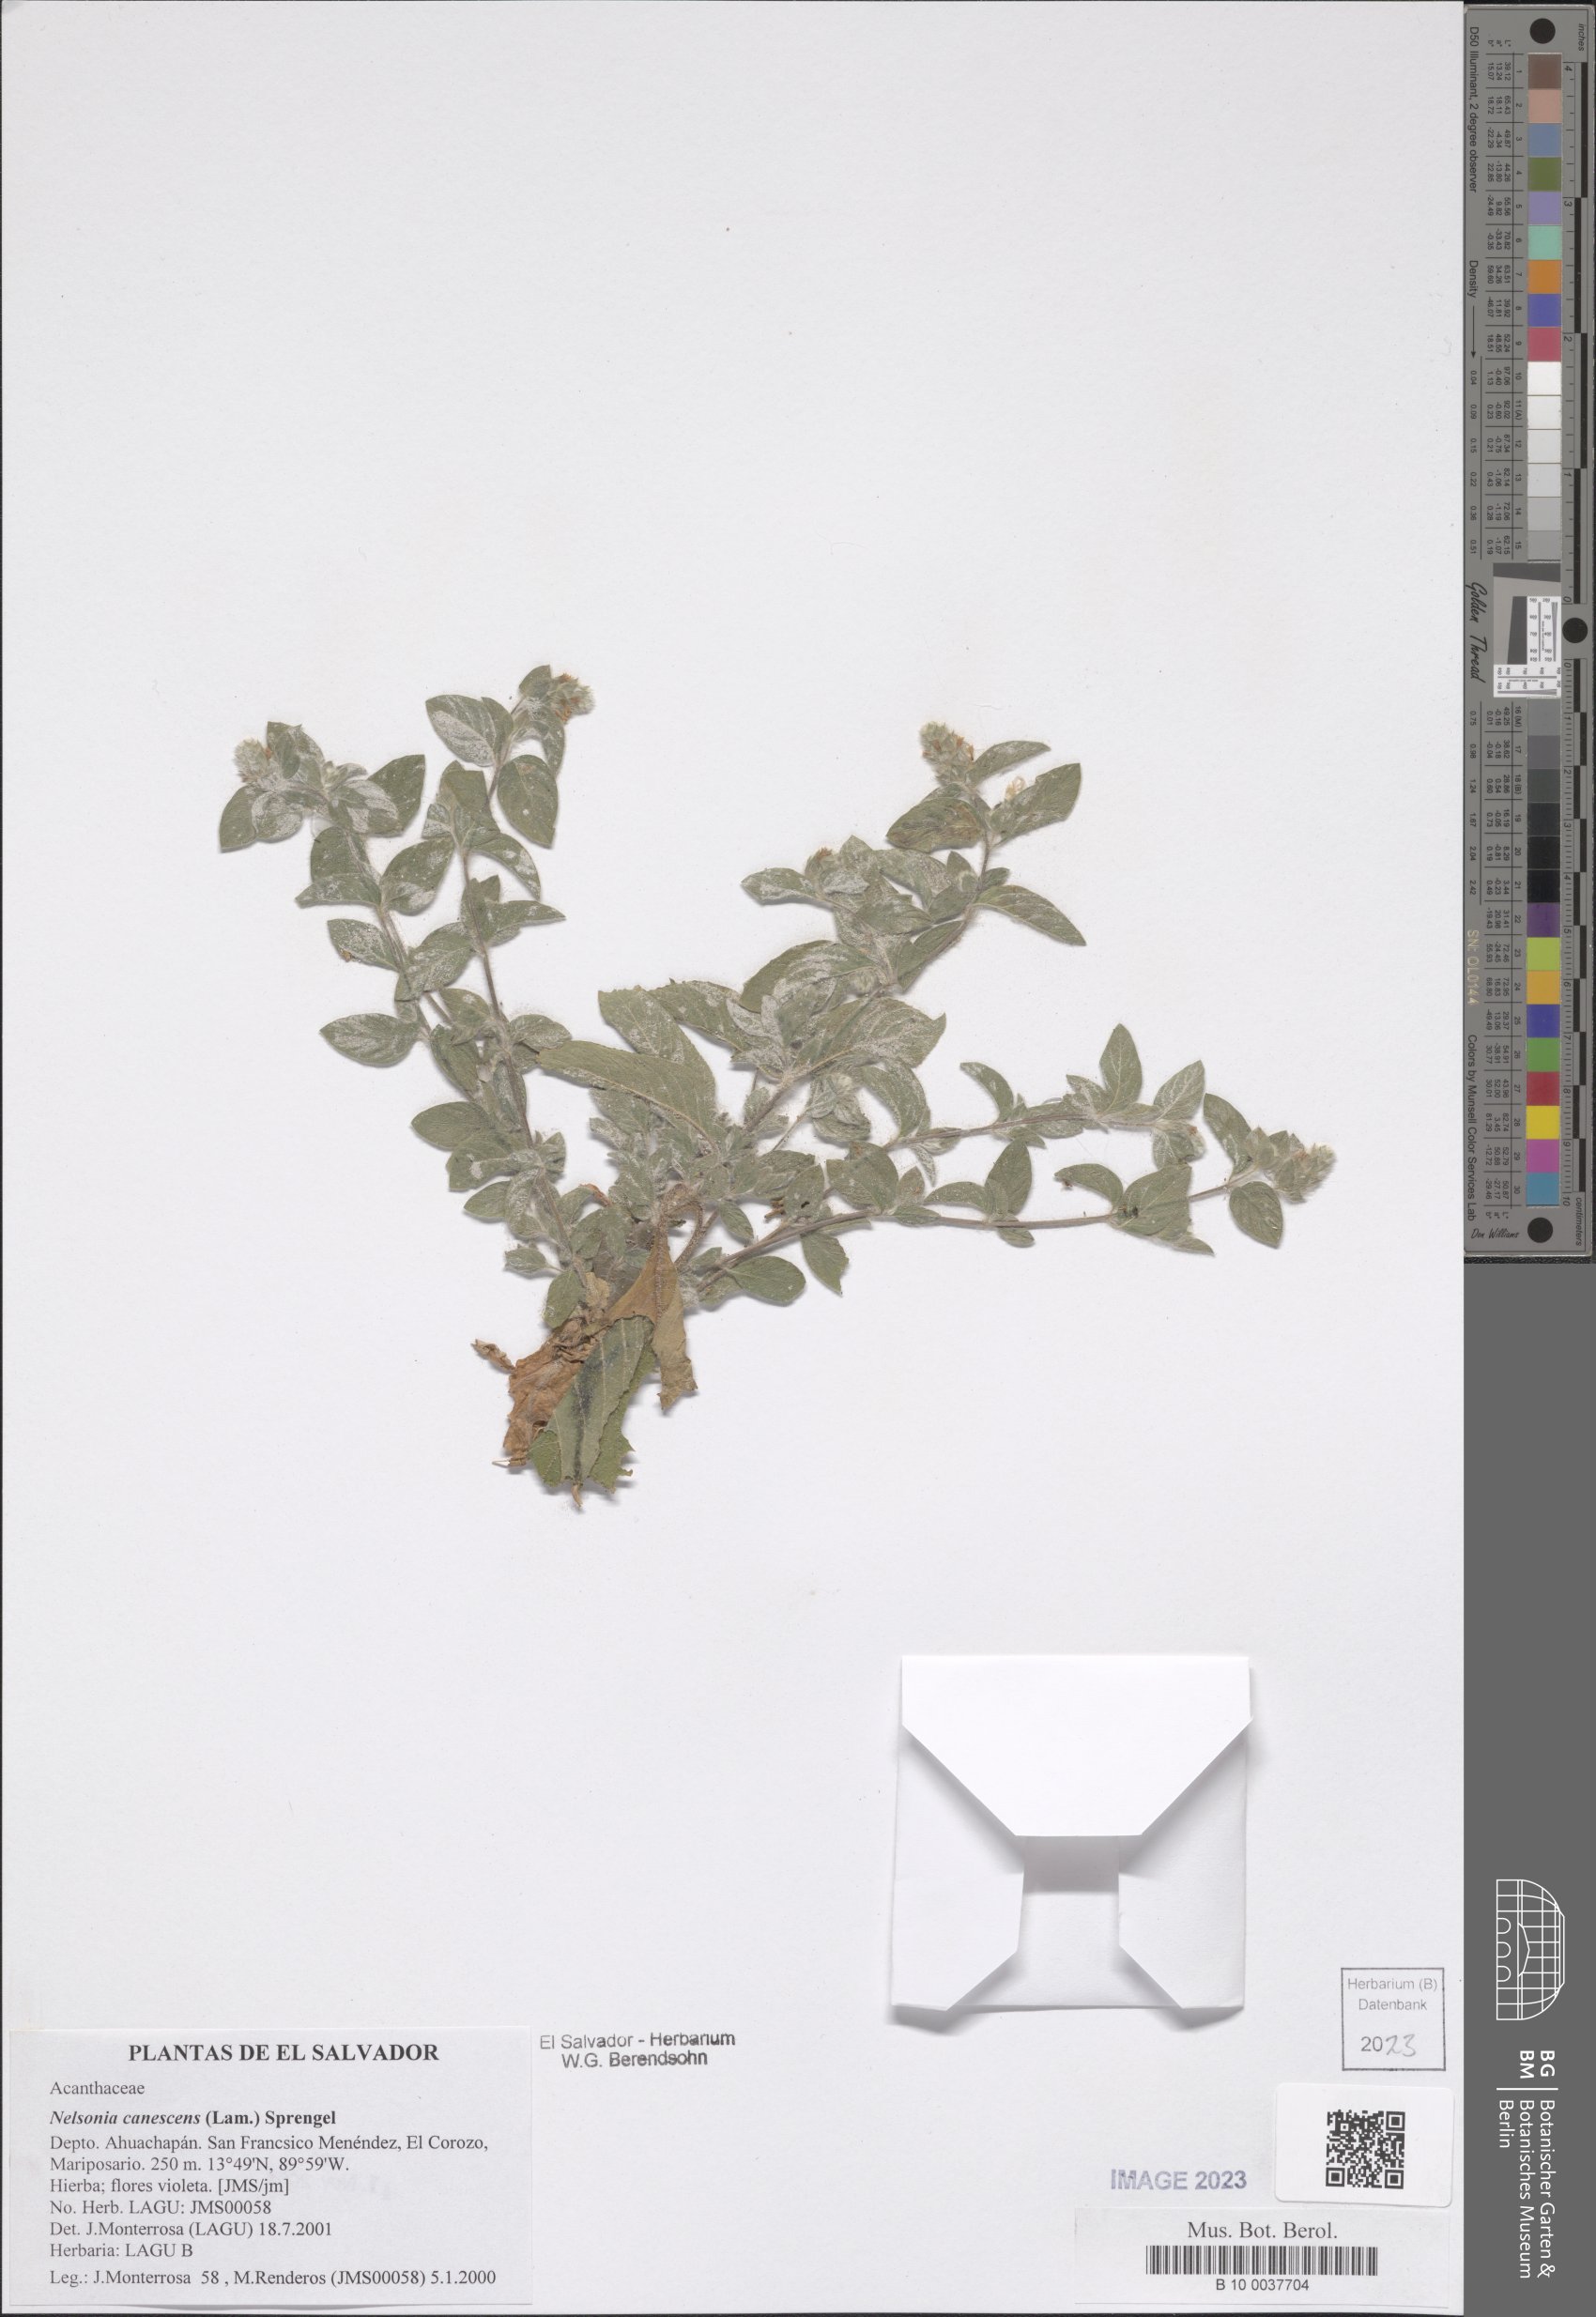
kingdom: Plantae
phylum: Tracheophyta
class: Magnoliopsida
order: Lamiales
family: Acanthaceae
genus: Nelsonia
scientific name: Nelsonia canescens
